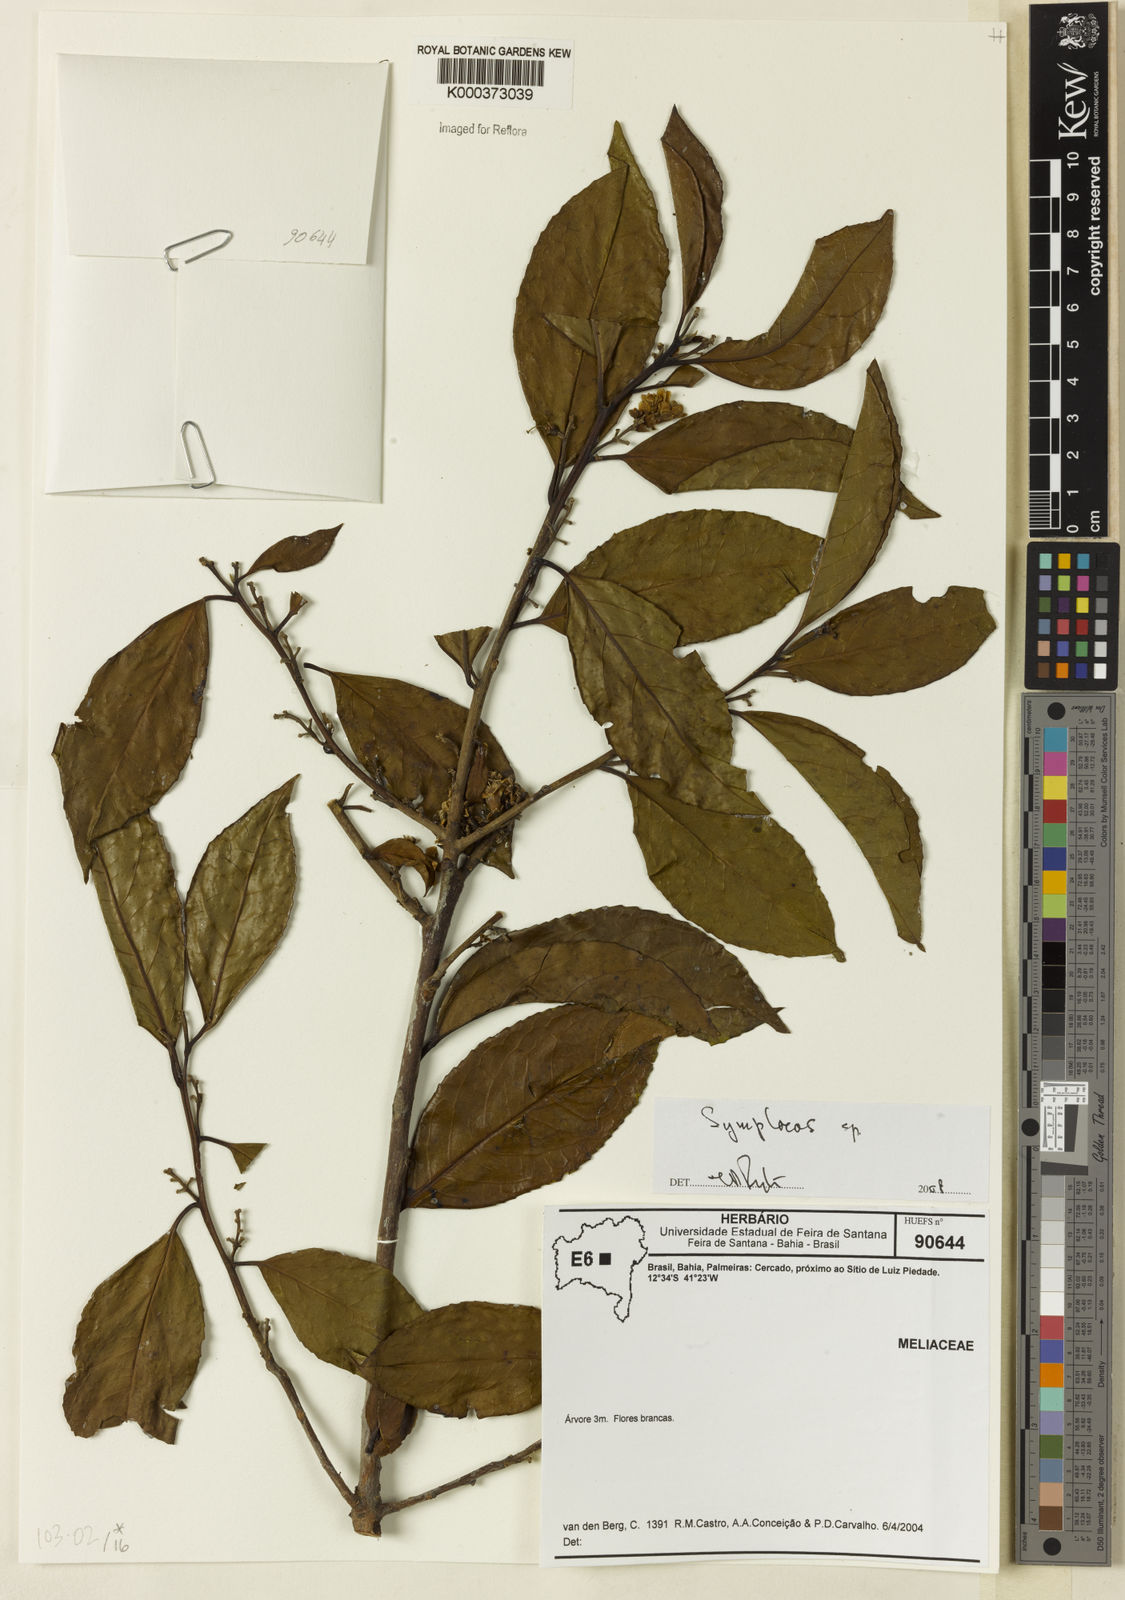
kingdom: Plantae
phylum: Tracheophyta
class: Magnoliopsida
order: Ericales
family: Symplocaceae
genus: Symplocos
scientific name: Symplocos
